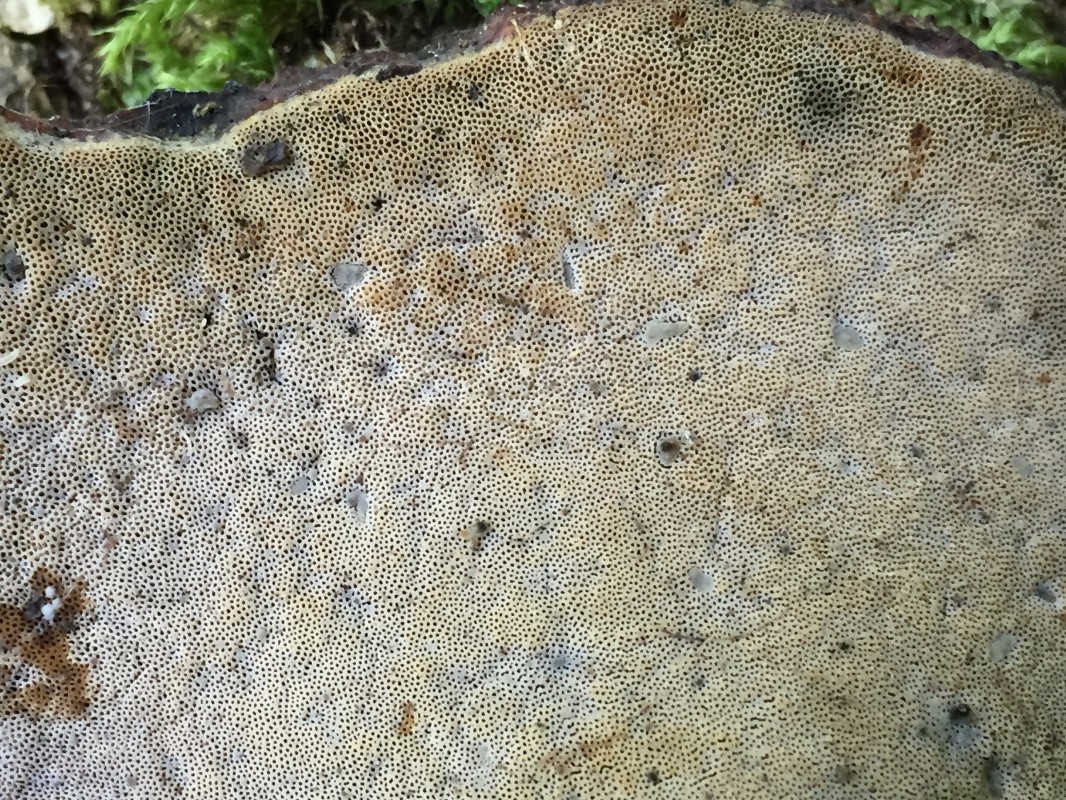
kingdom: Fungi
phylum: Basidiomycota
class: Agaricomycetes
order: Polyporales
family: Polyporaceae
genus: Cerioporus
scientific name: Cerioporus varius
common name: foranderlig stilkporesvamp
